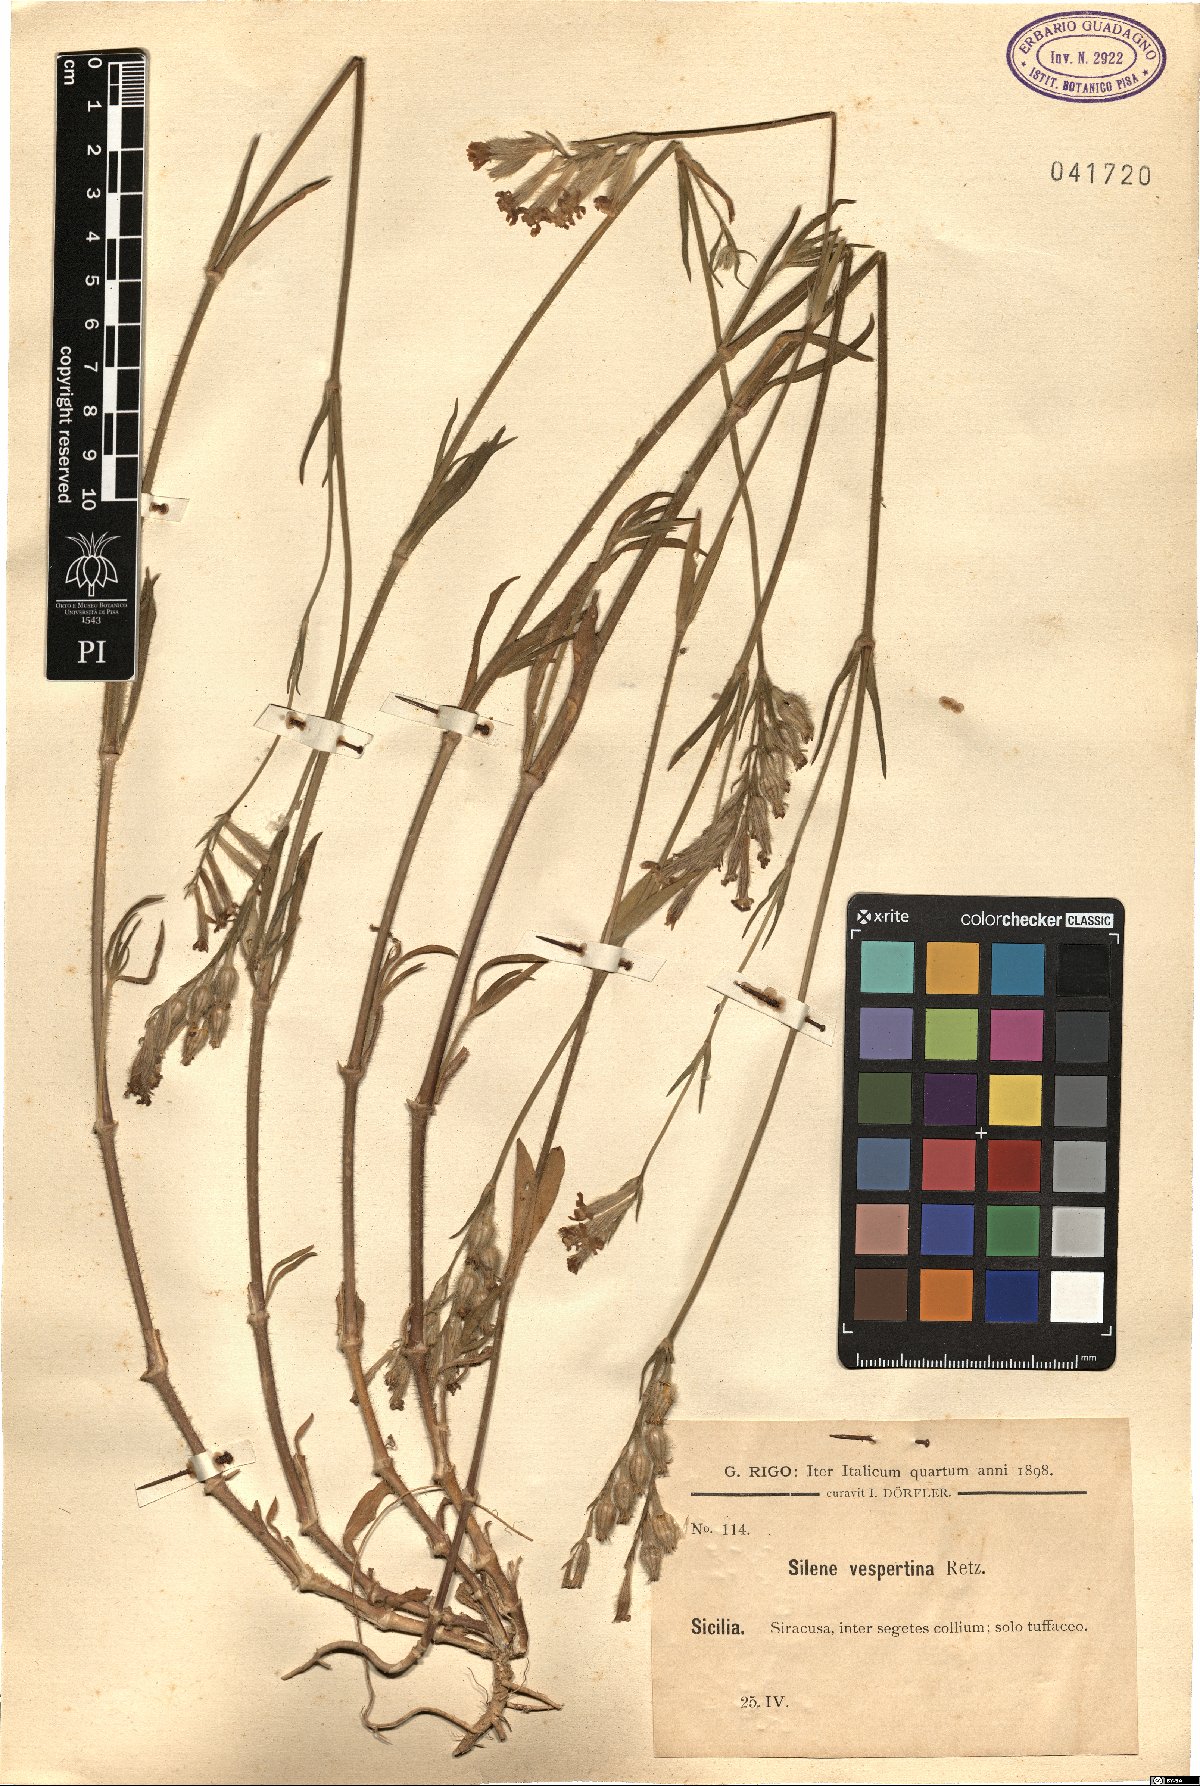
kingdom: Plantae
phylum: Tracheophyta
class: Magnoliopsida
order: Caryophyllales
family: Caryophyllaceae
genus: Silene
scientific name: Silene bellidifolia
